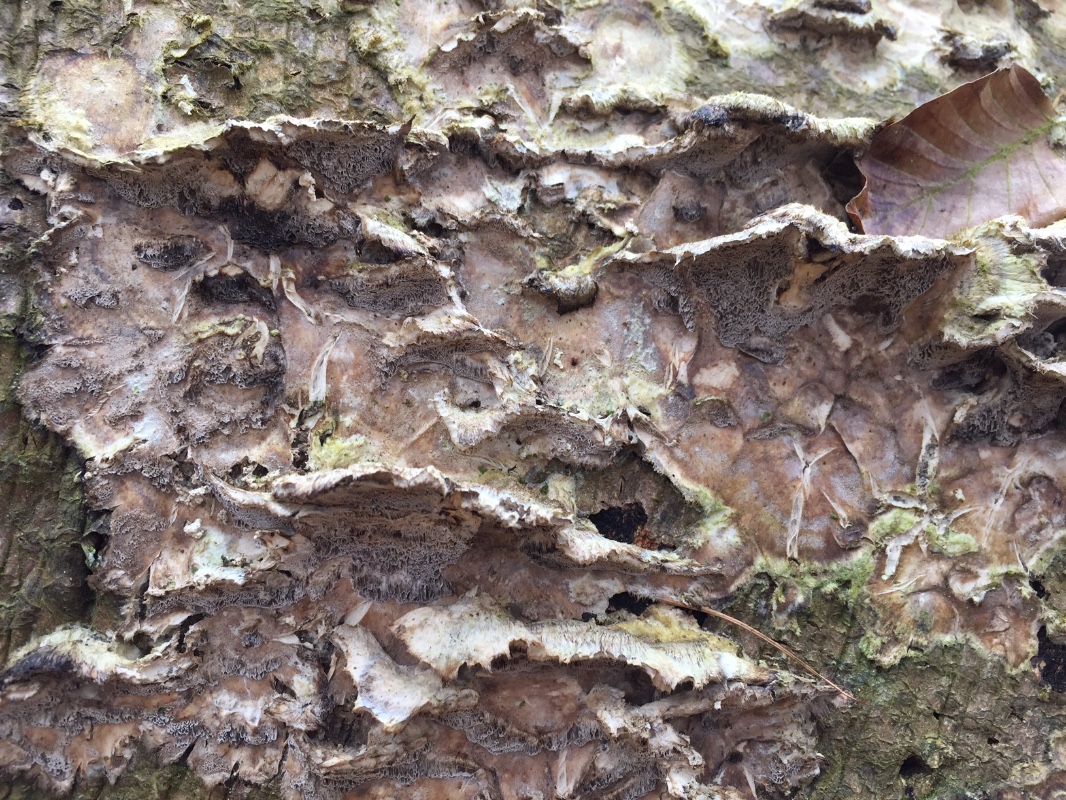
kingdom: Fungi
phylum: Basidiomycota
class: Agaricomycetes
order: Polyporales
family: Phanerochaetaceae
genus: Bjerkandera
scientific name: Bjerkandera adusta
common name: sveden sodporesvamp
